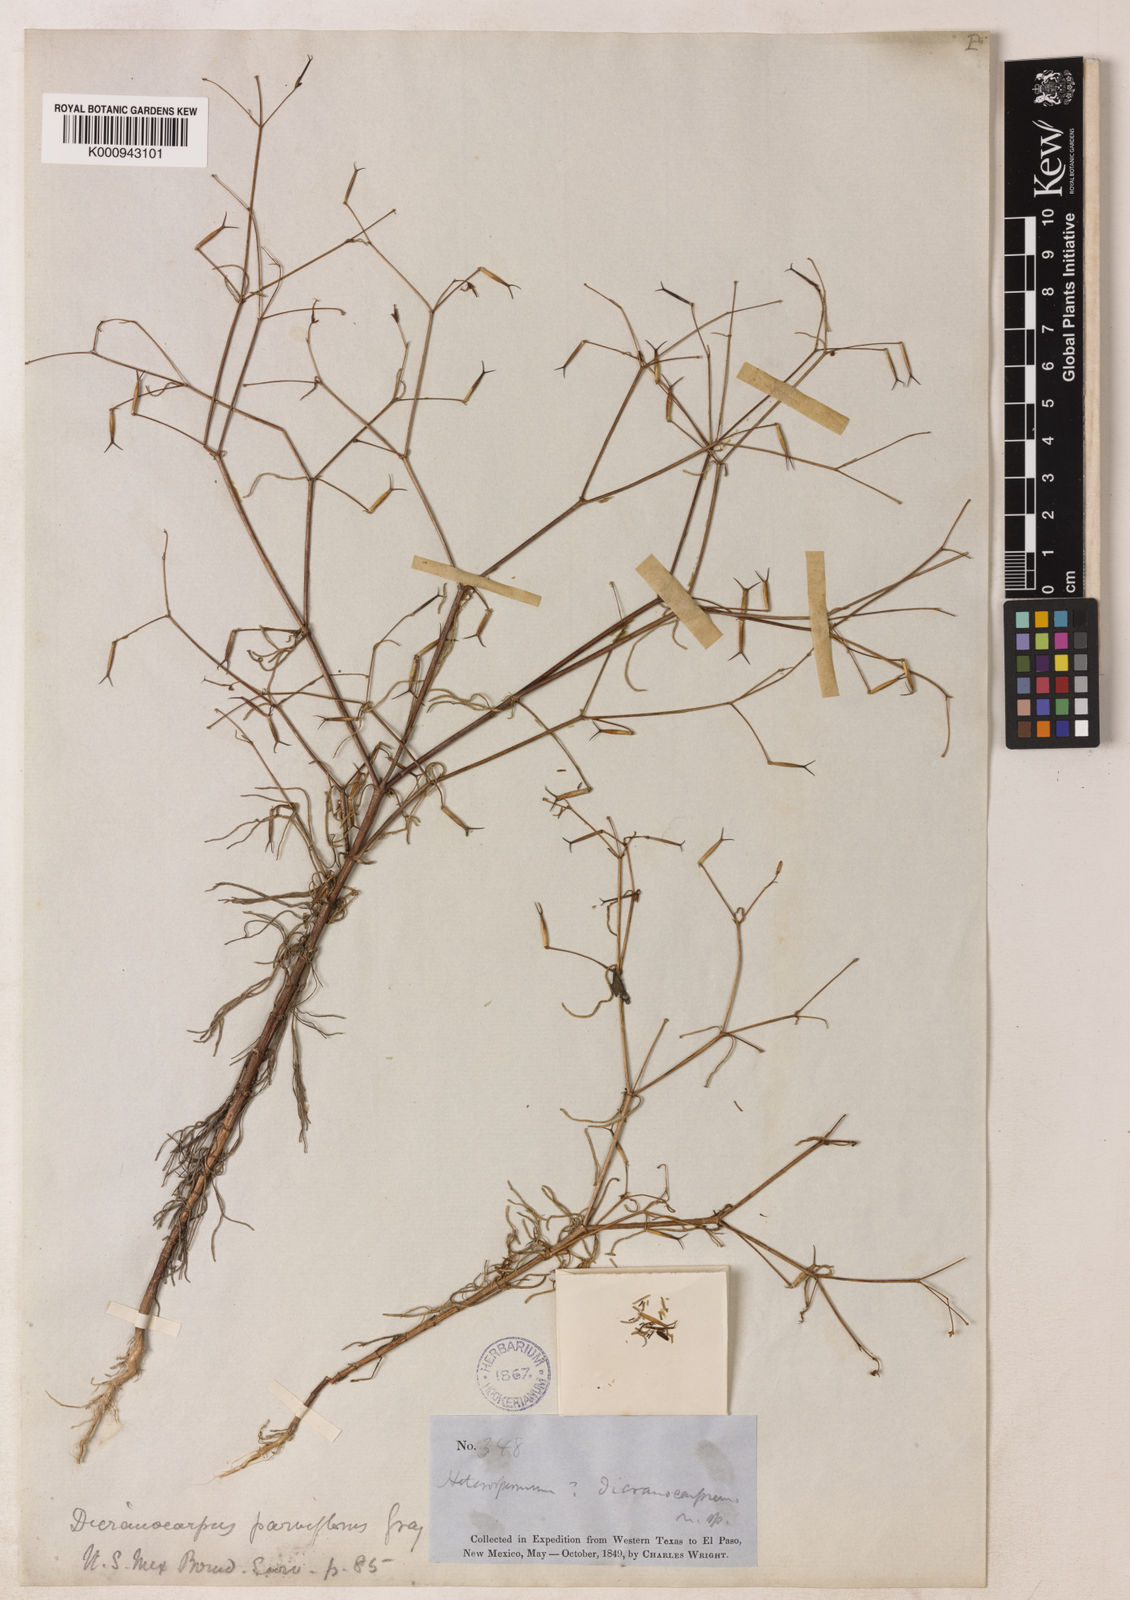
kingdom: Plantae
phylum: Tracheophyta
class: Magnoliopsida
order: Asterales
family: Asteraceae
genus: Dicranocarpus
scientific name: Dicranocarpus parviflorus
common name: Pitchfork
